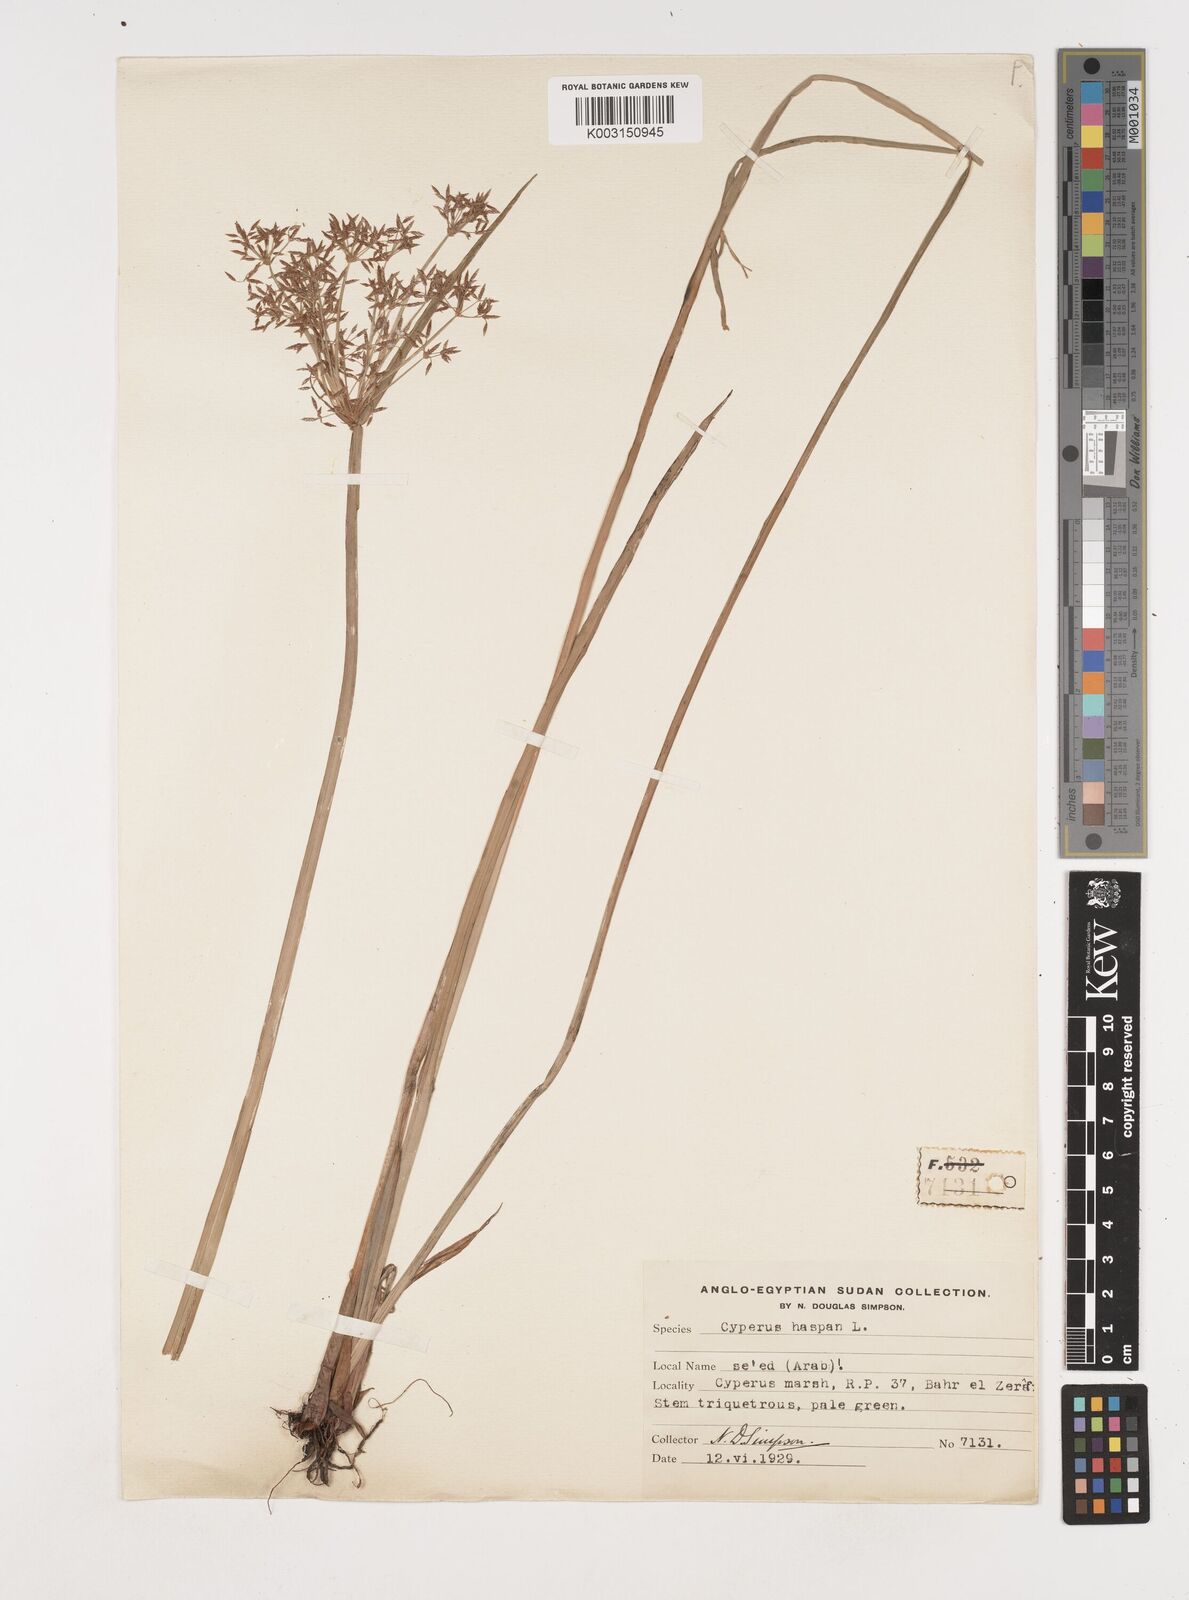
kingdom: Plantae
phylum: Tracheophyta
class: Liliopsida
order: Poales
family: Cyperaceae
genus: Cyperus
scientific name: Cyperus haspan
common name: Haspan flatsedge
